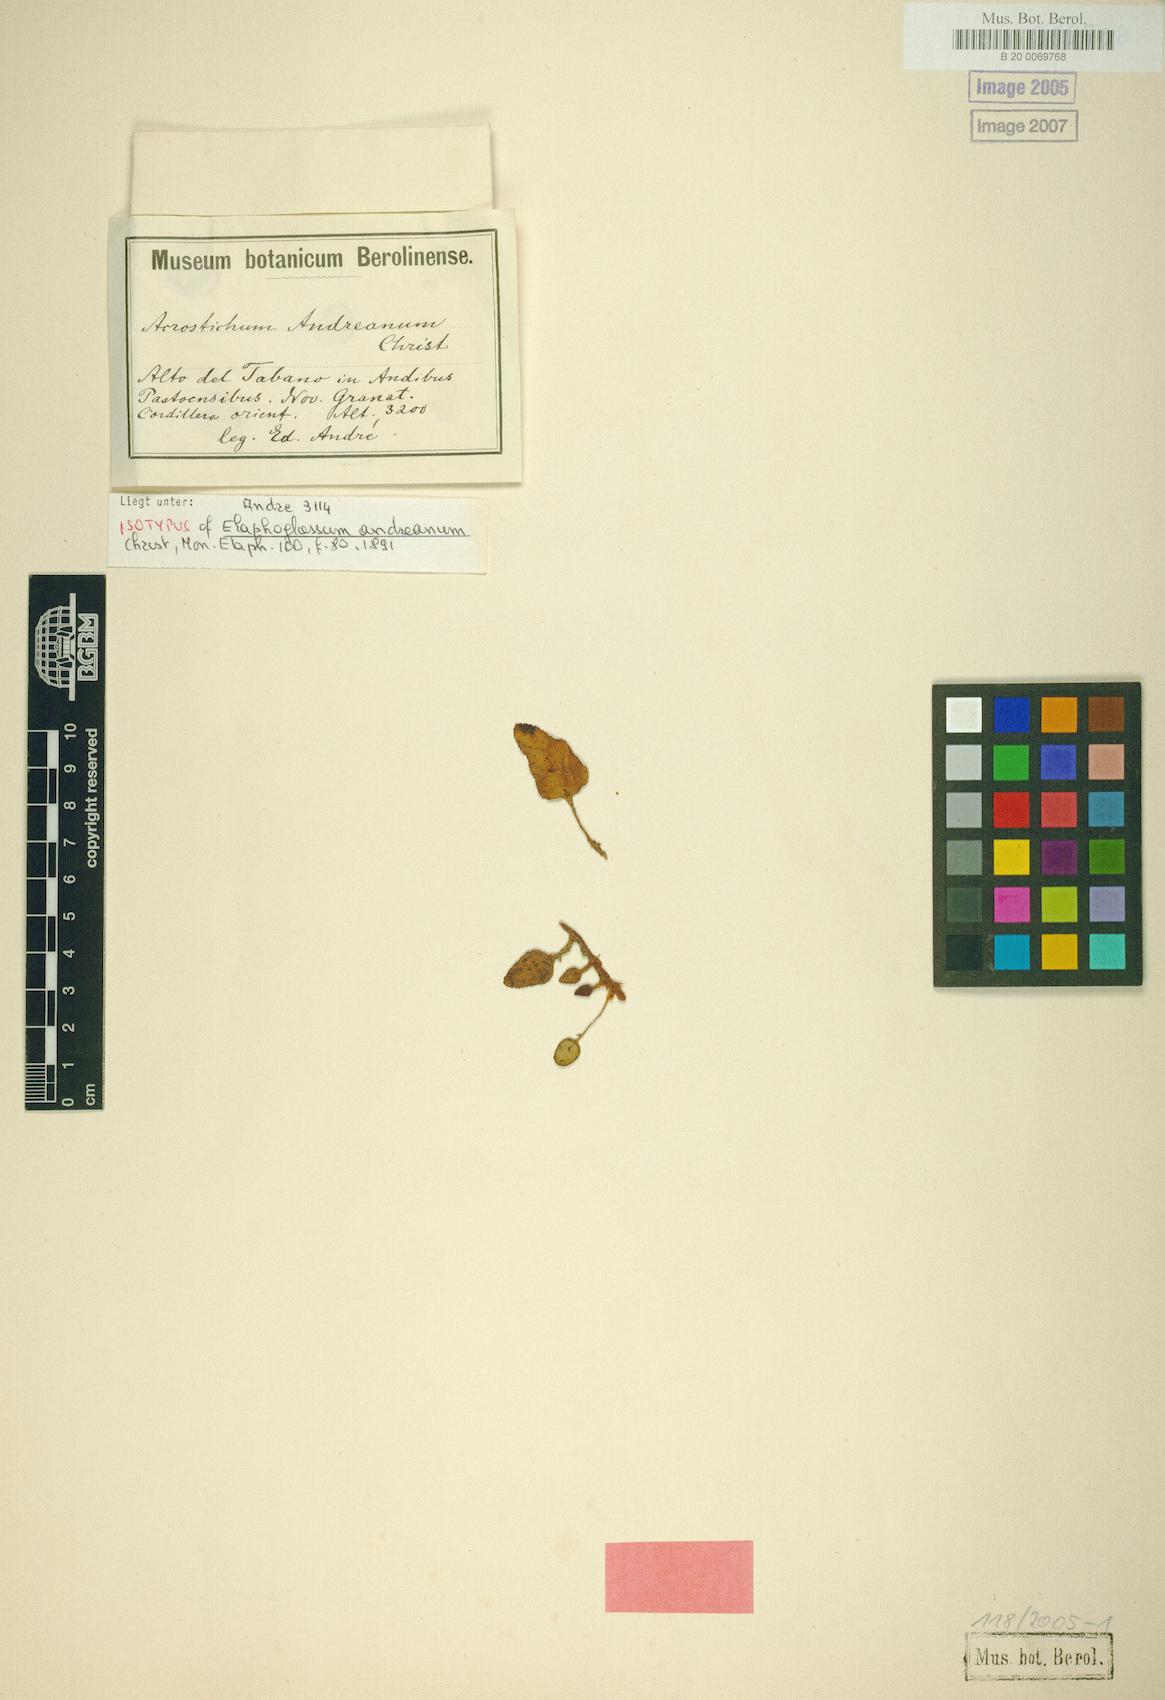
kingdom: Plantae
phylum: Tracheophyta
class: Polypodiopsida
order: Polypodiales
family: Dryopteridaceae
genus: Elaphoglossum
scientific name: Elaphoglossum andreanum
